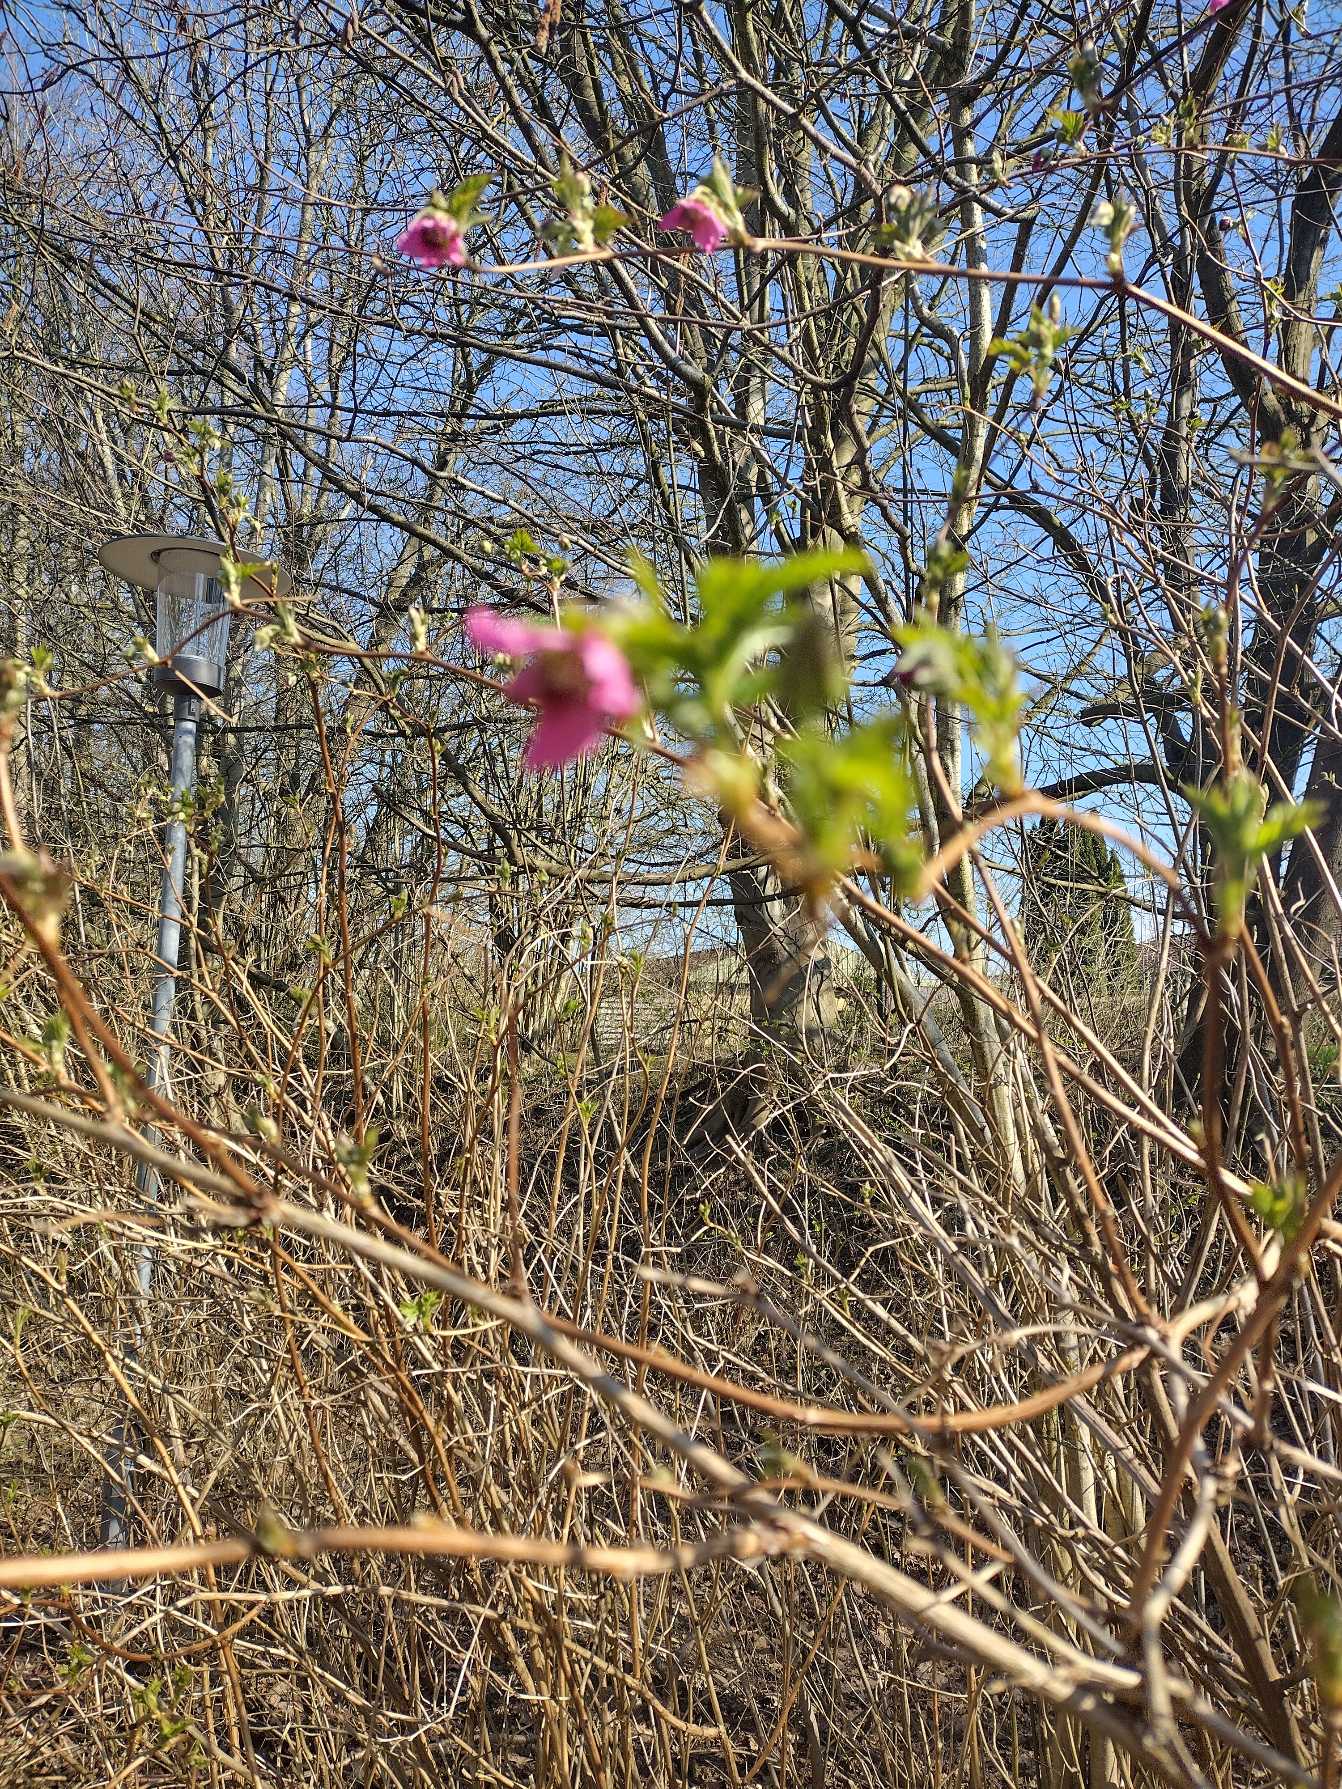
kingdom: Plantae
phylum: Tracheophyta
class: Magnoliopsida
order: Rosales
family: Rosaceae
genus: Rubus
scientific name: Rubus spectabilis
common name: Laksebær
